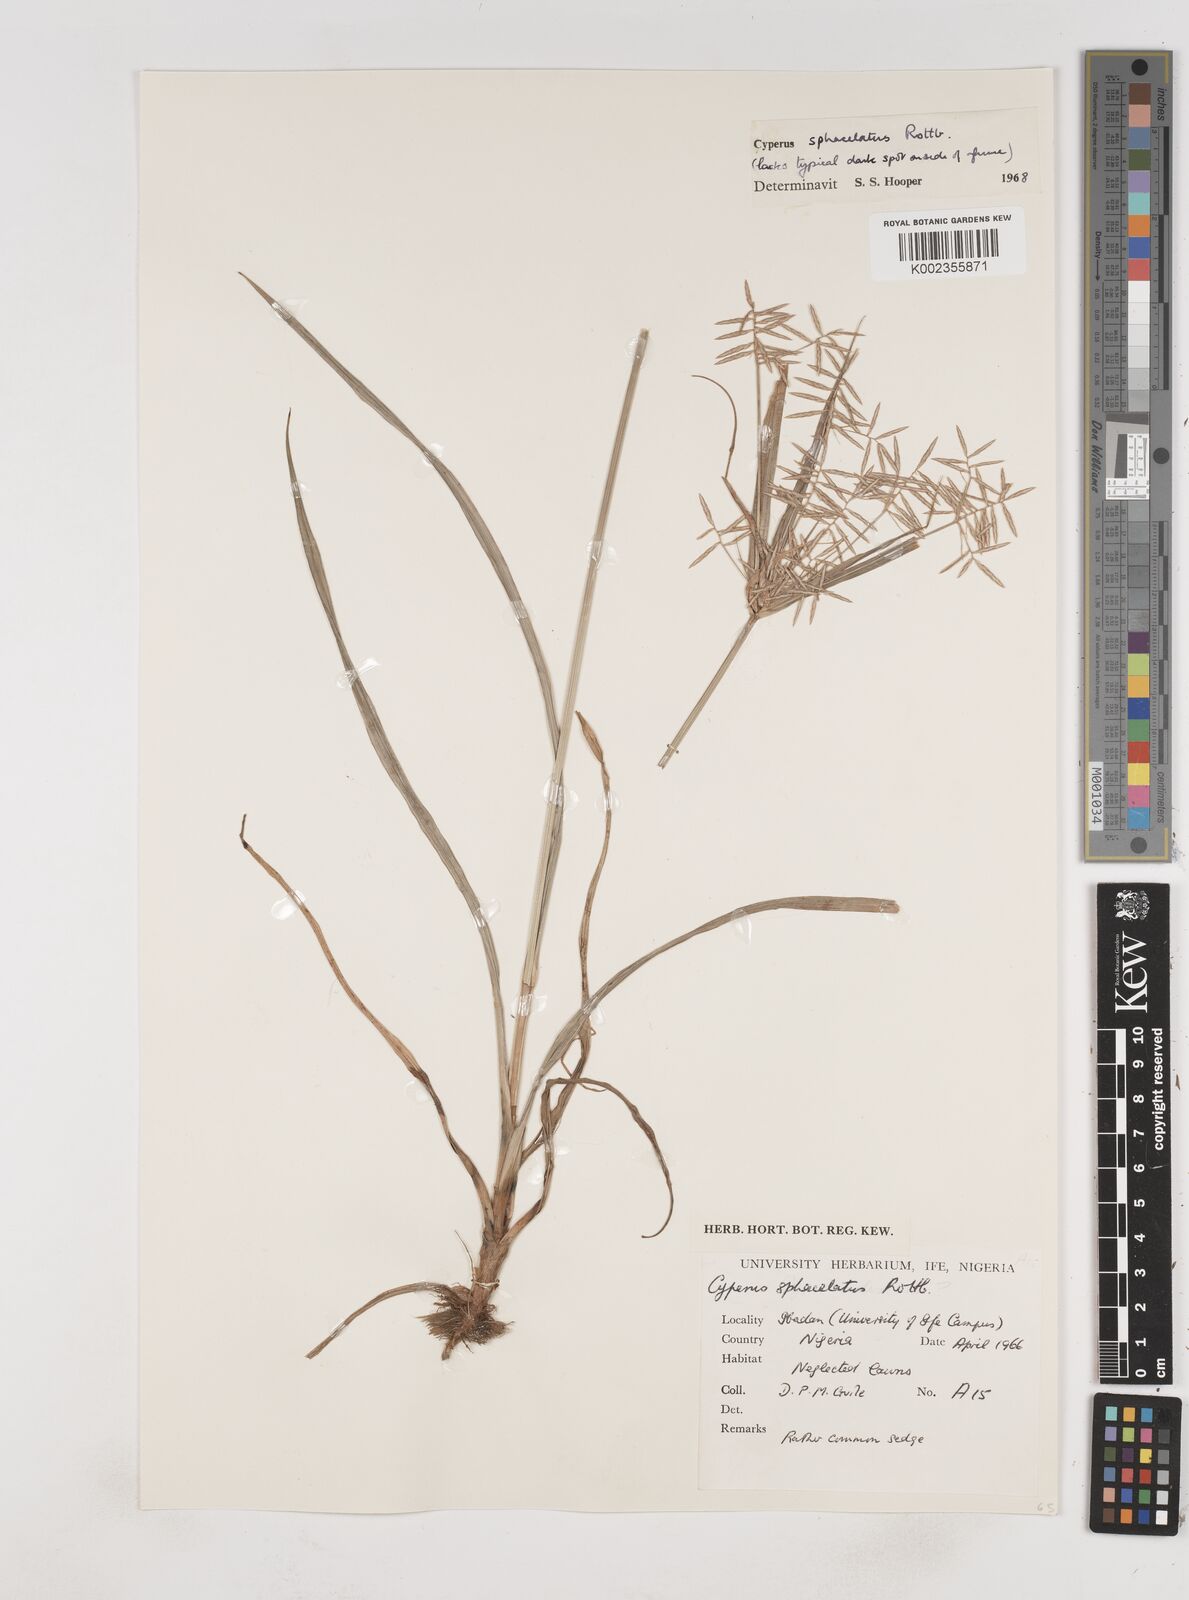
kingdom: Plantae
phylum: Tracheophyta
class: Liliopsida
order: Poales
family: Cyperaceae
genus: Cyperus
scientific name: Cyperus sphacelatus
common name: Roadside flatsedge
